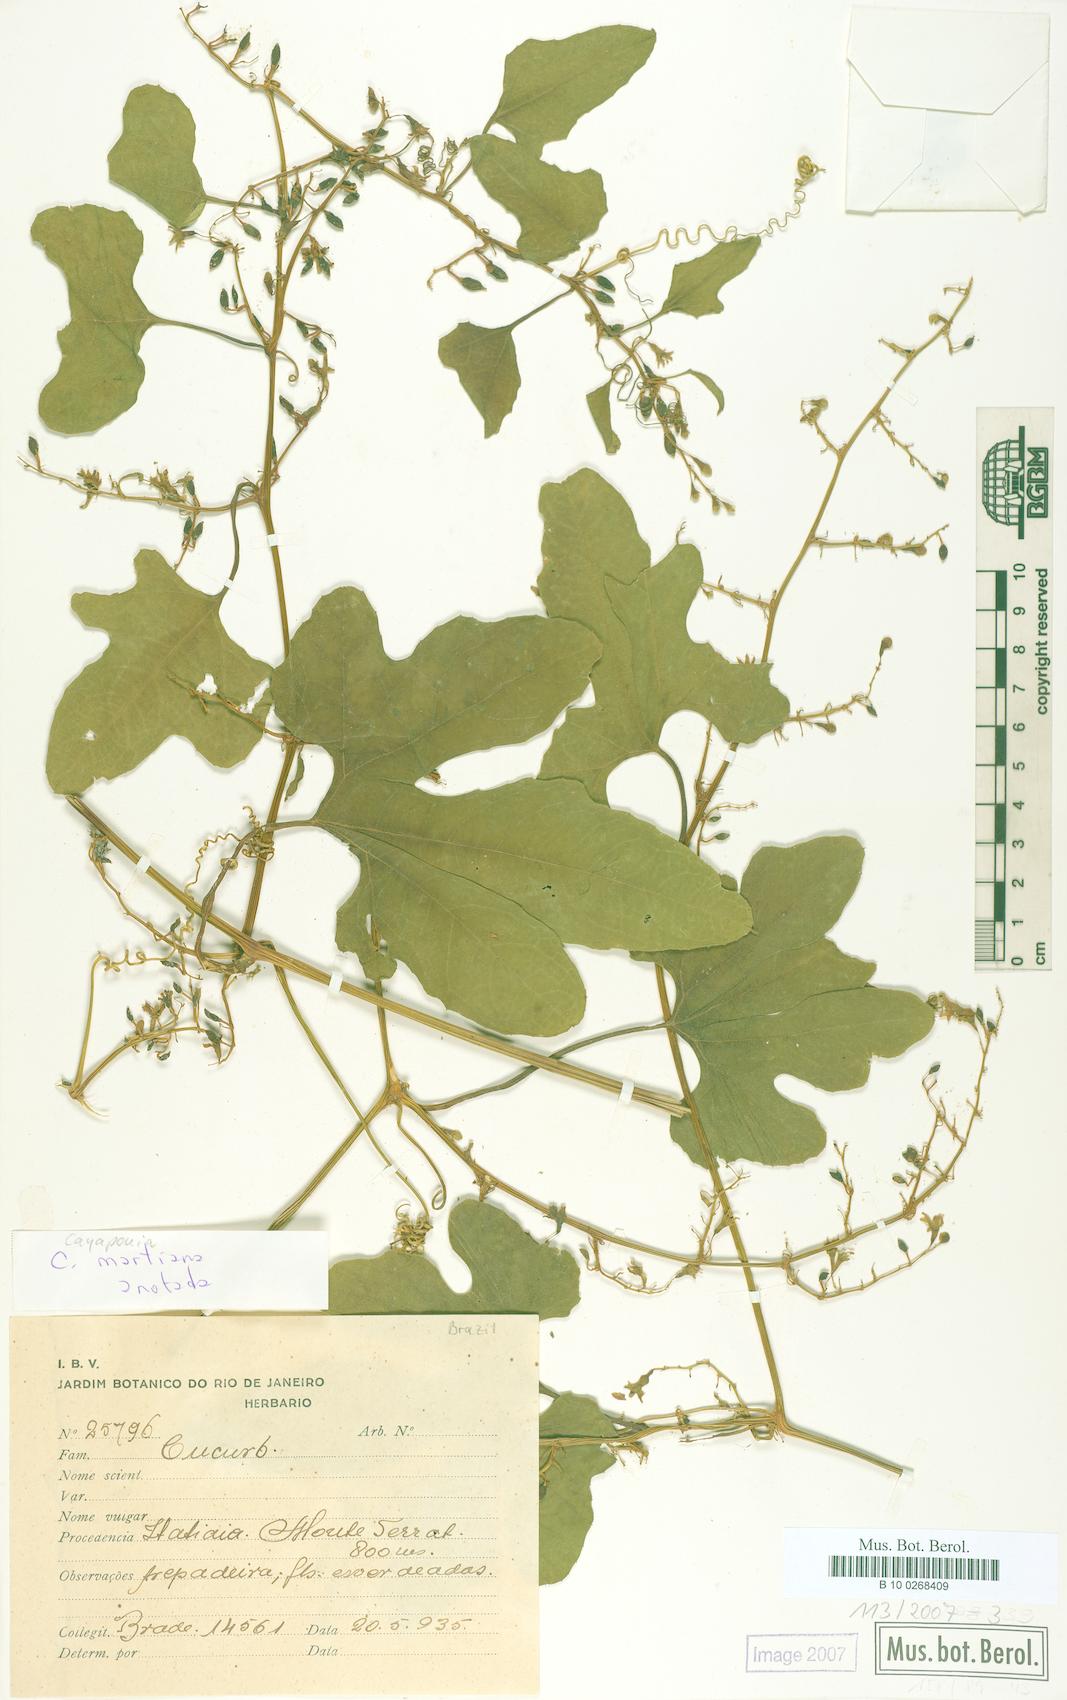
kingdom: Plantae
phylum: Tracheophyta
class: Magnoliopsida
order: Cucurbitales
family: Cucurbitaceae
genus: Cayaponia
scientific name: Cayaponia martiana
